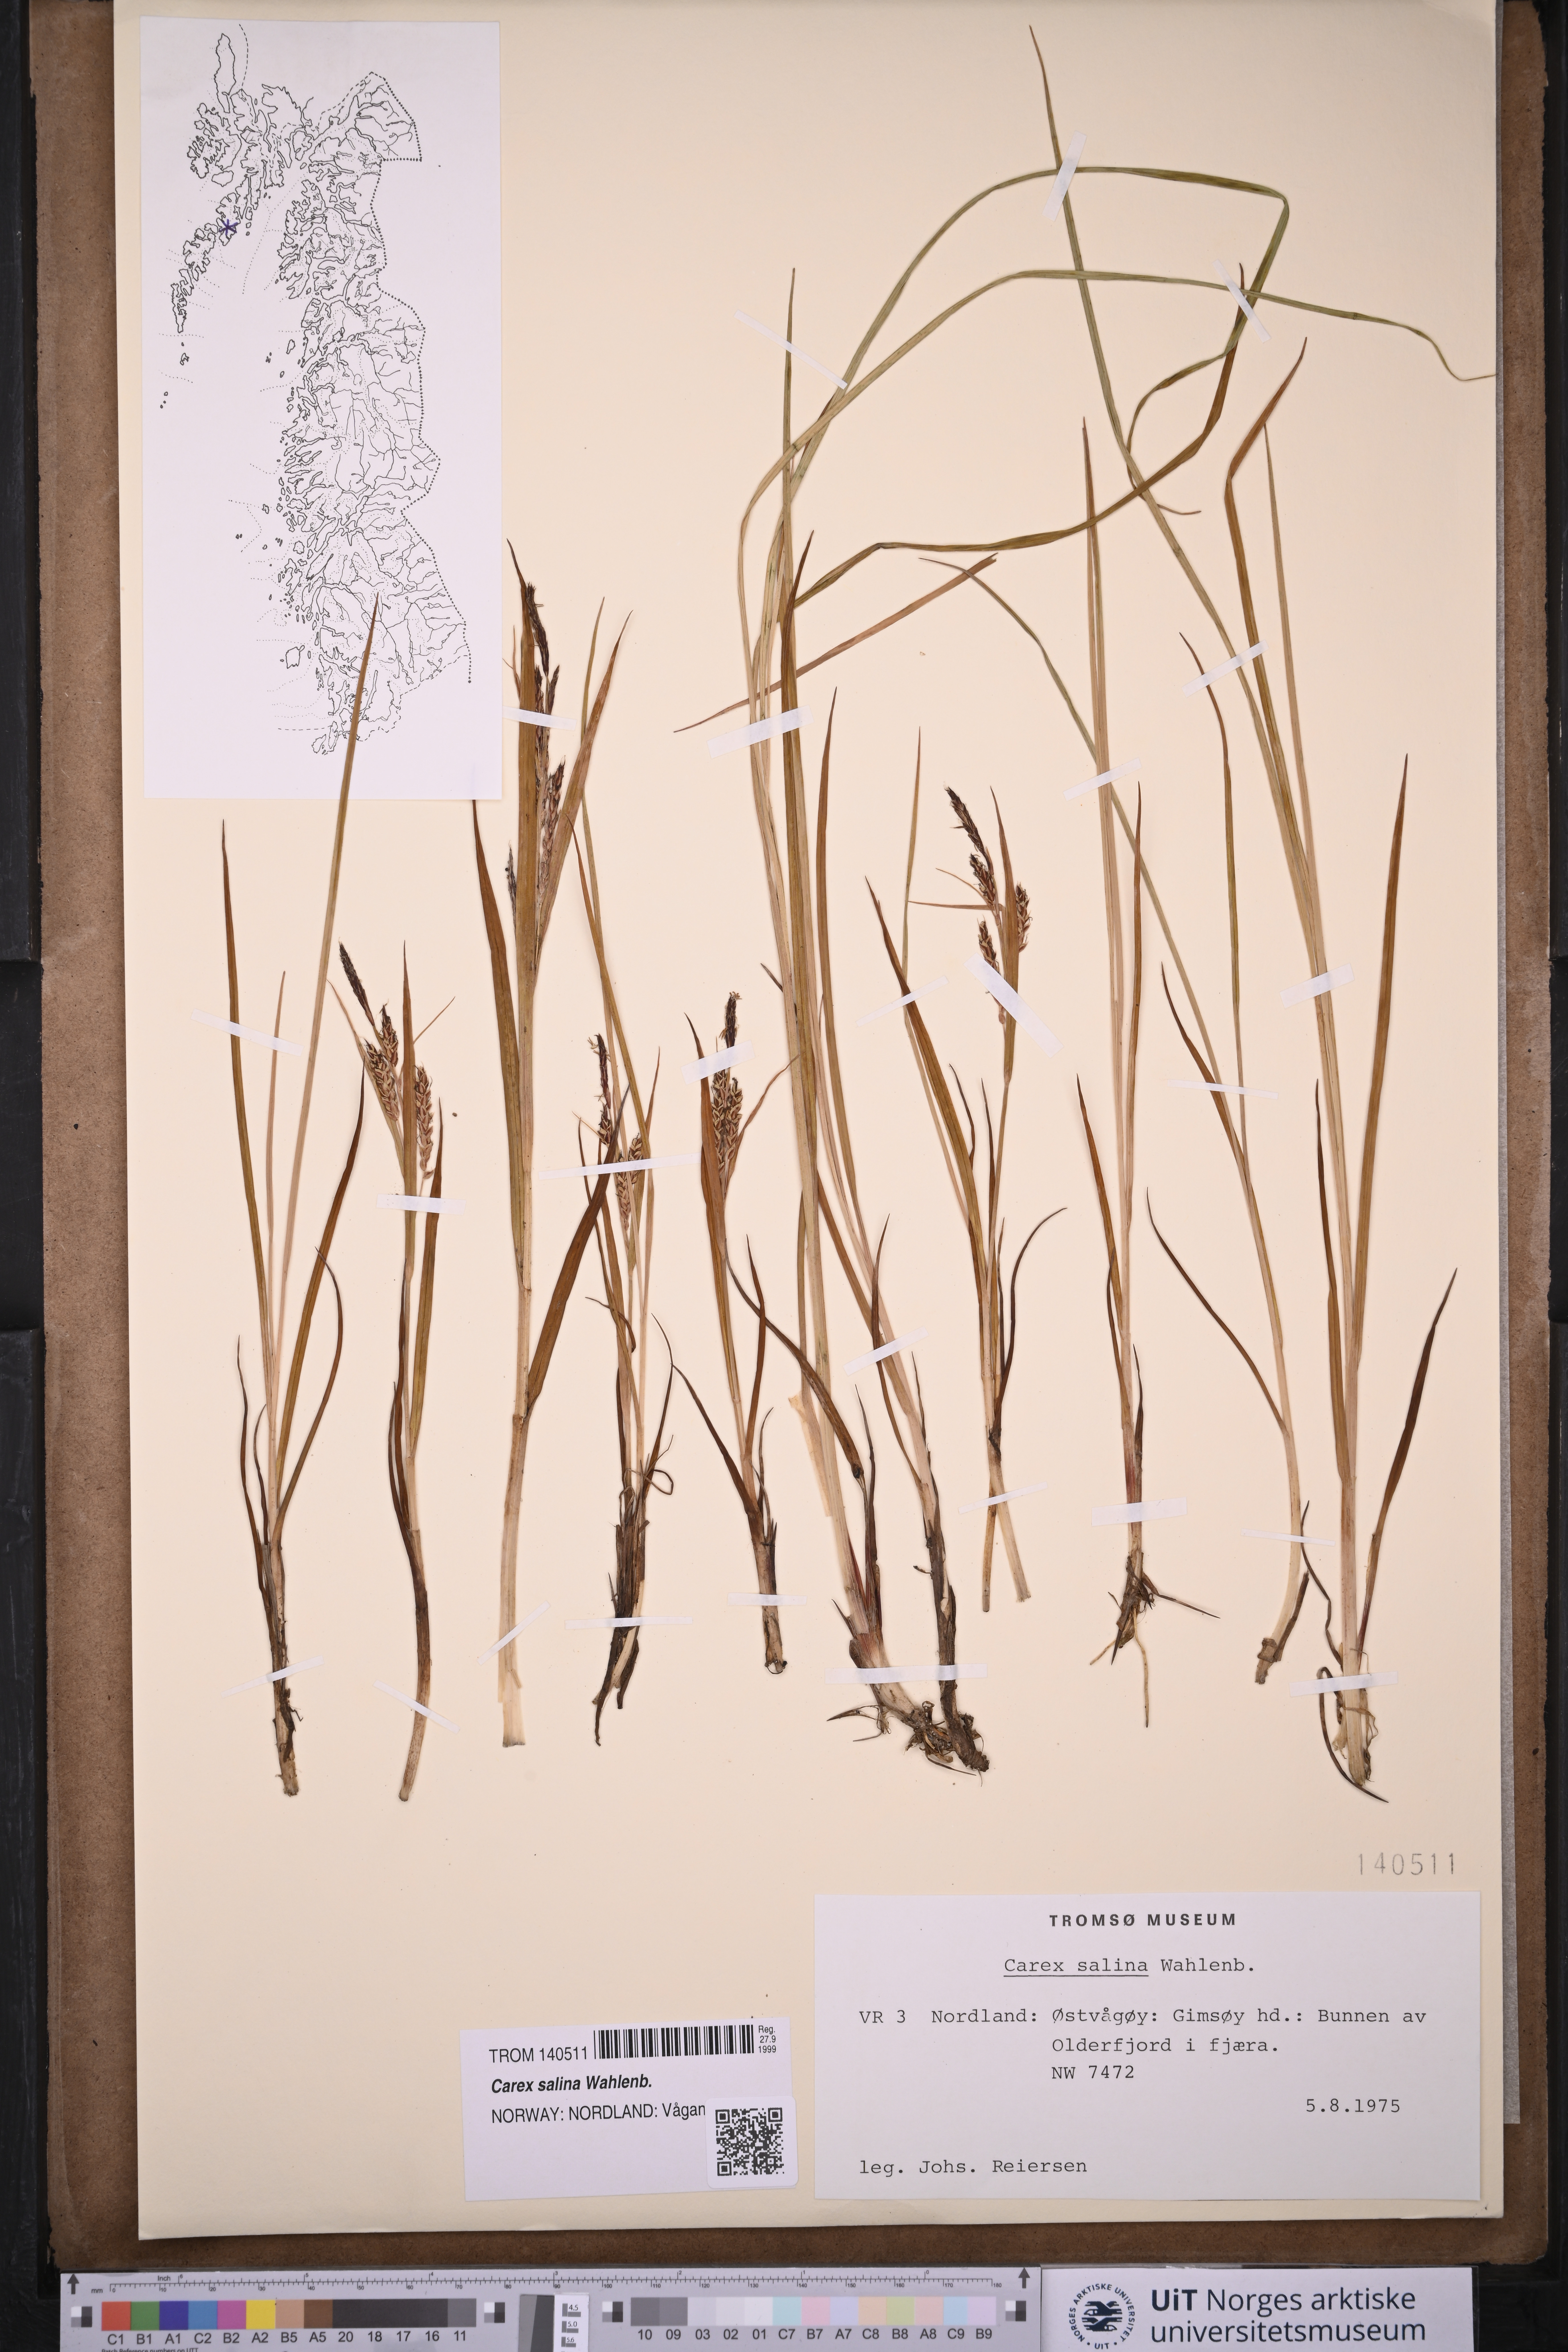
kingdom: Plantae
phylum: Tracheophyta
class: Liliopsida
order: Poales
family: Cyperaceae
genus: Carex
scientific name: Carex salina
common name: Saltmarsh sedge
